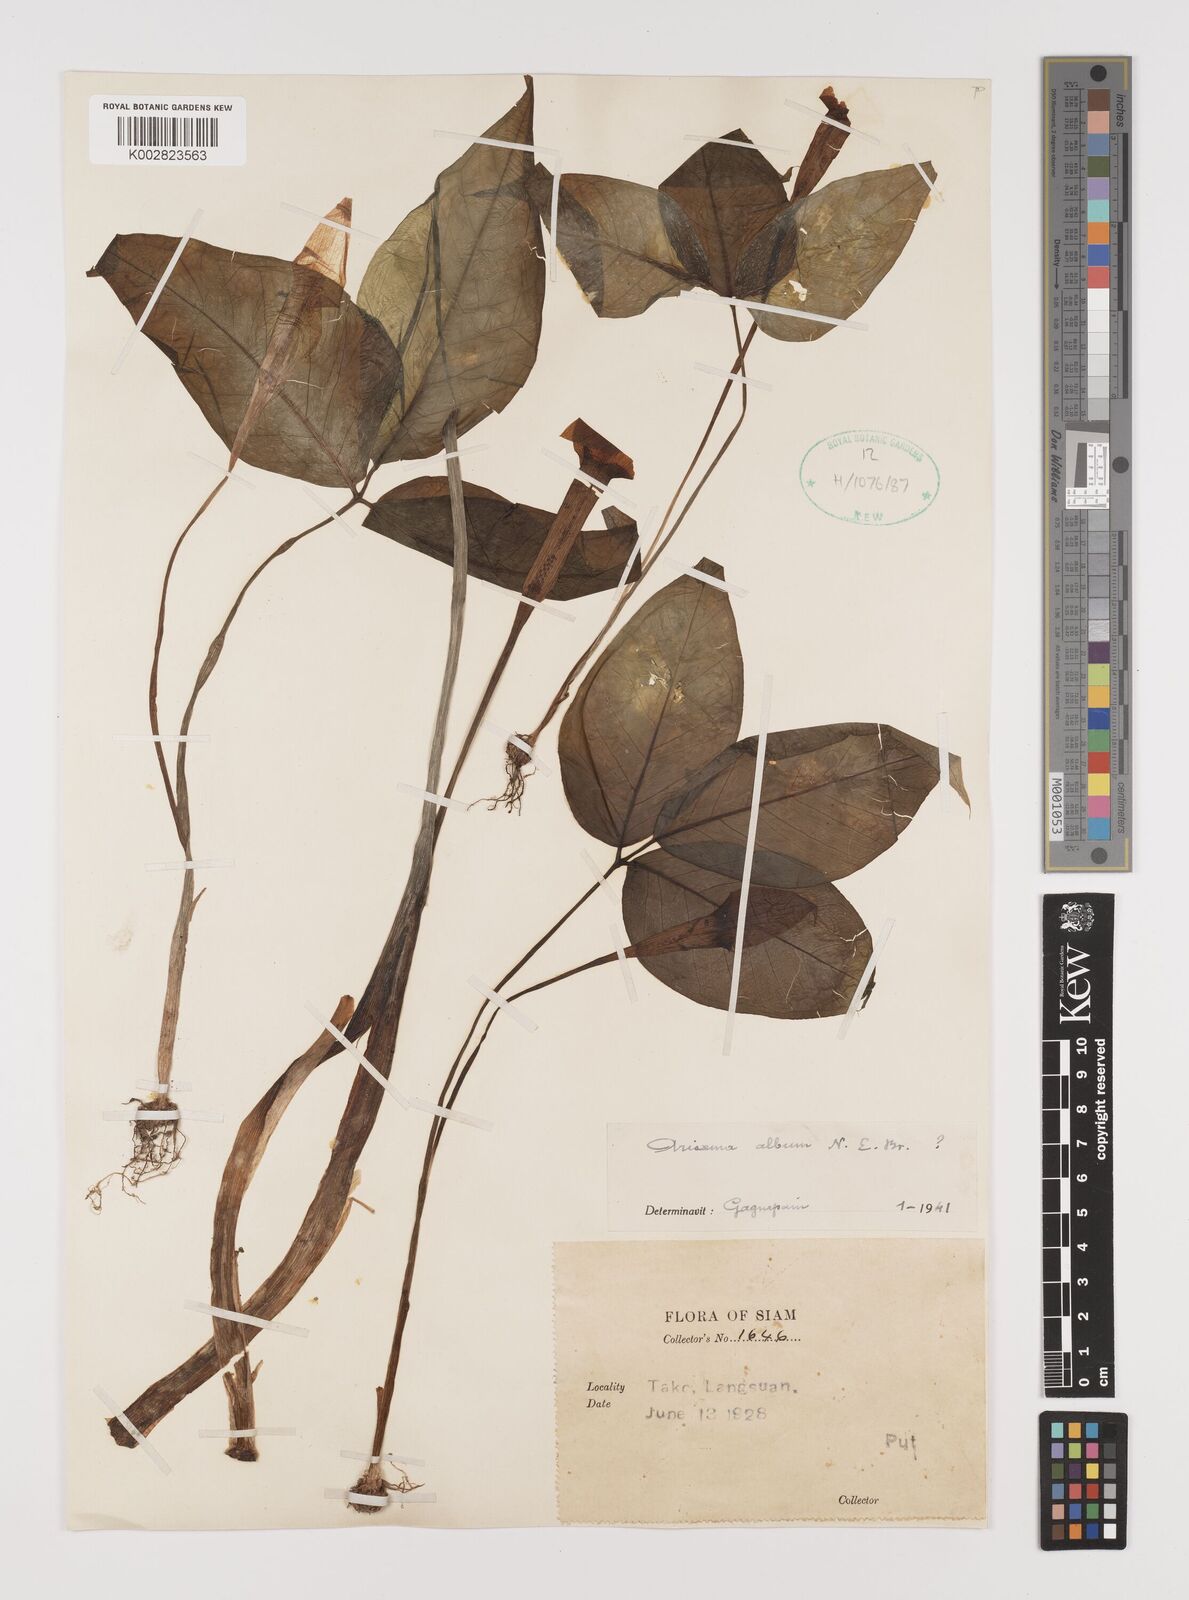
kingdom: Plantae
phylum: Tracheophyta
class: Liliopsida
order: Alismatales
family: Araceae
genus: Arisaema
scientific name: Arisaema album
